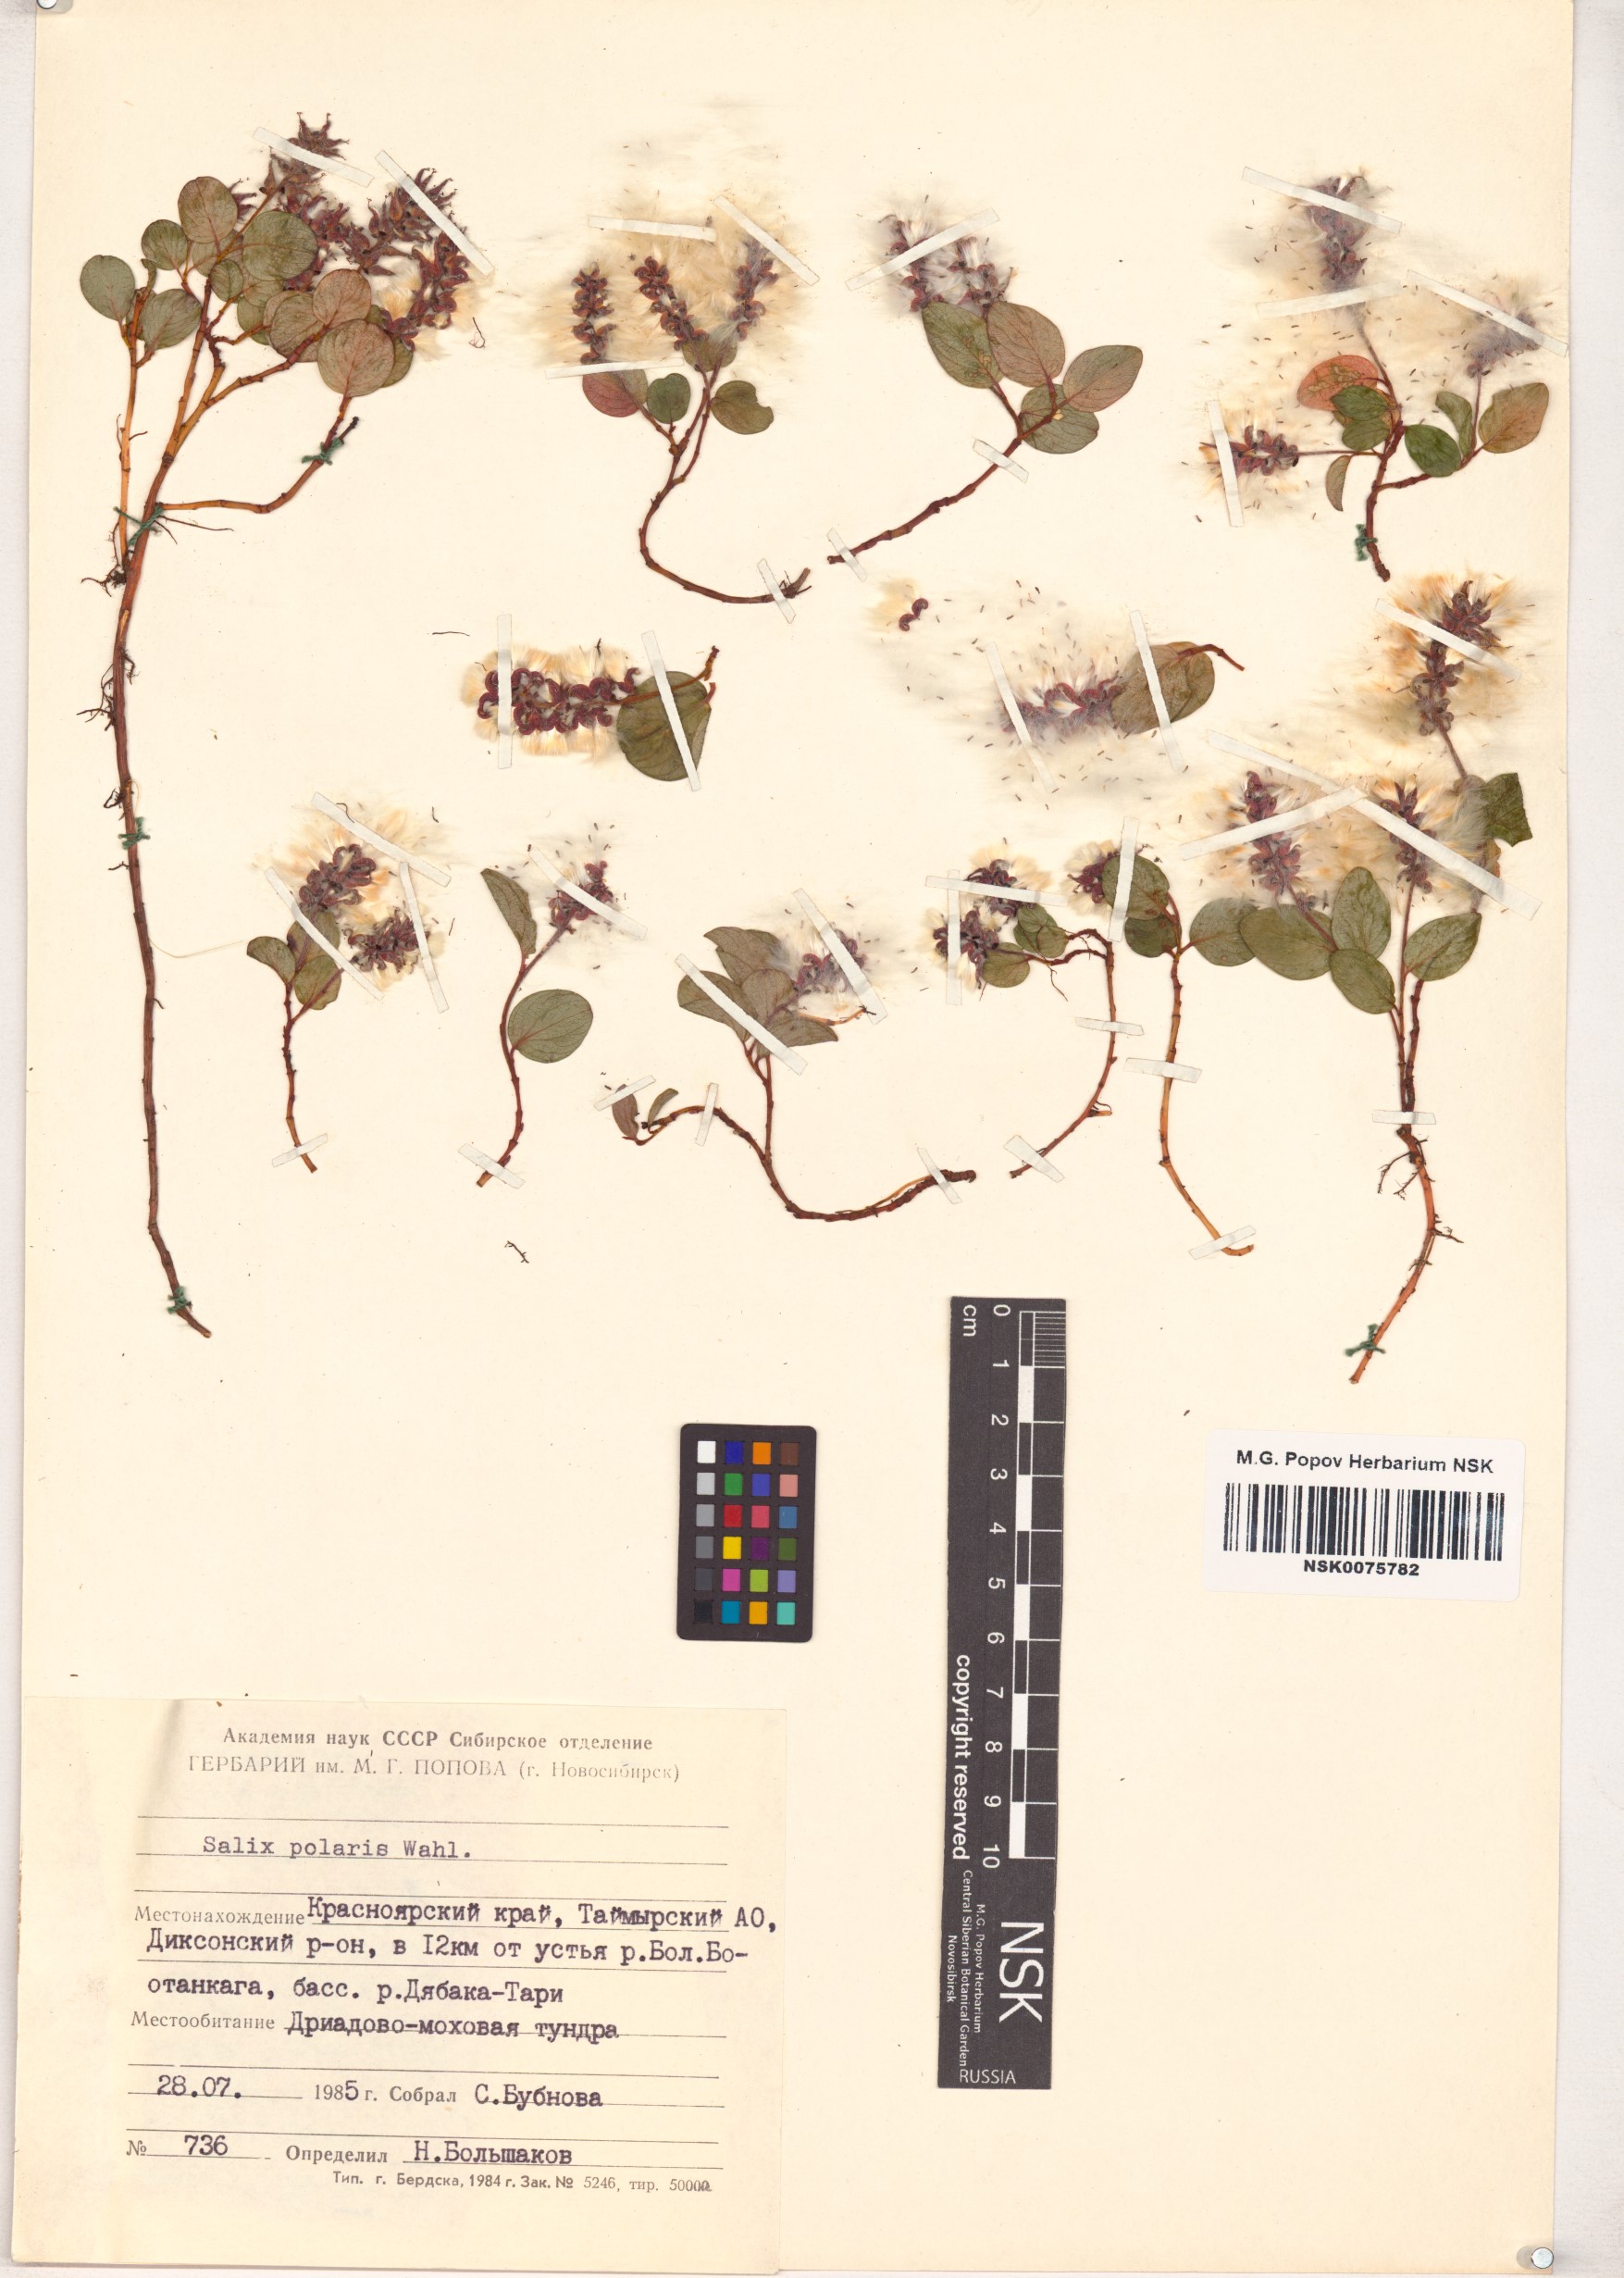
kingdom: Plantae
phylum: Tracheophyta
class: Magnoliopsida
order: Malpighiales
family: Salicaceae
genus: Salix
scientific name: Salix polaris
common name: Polar willow
